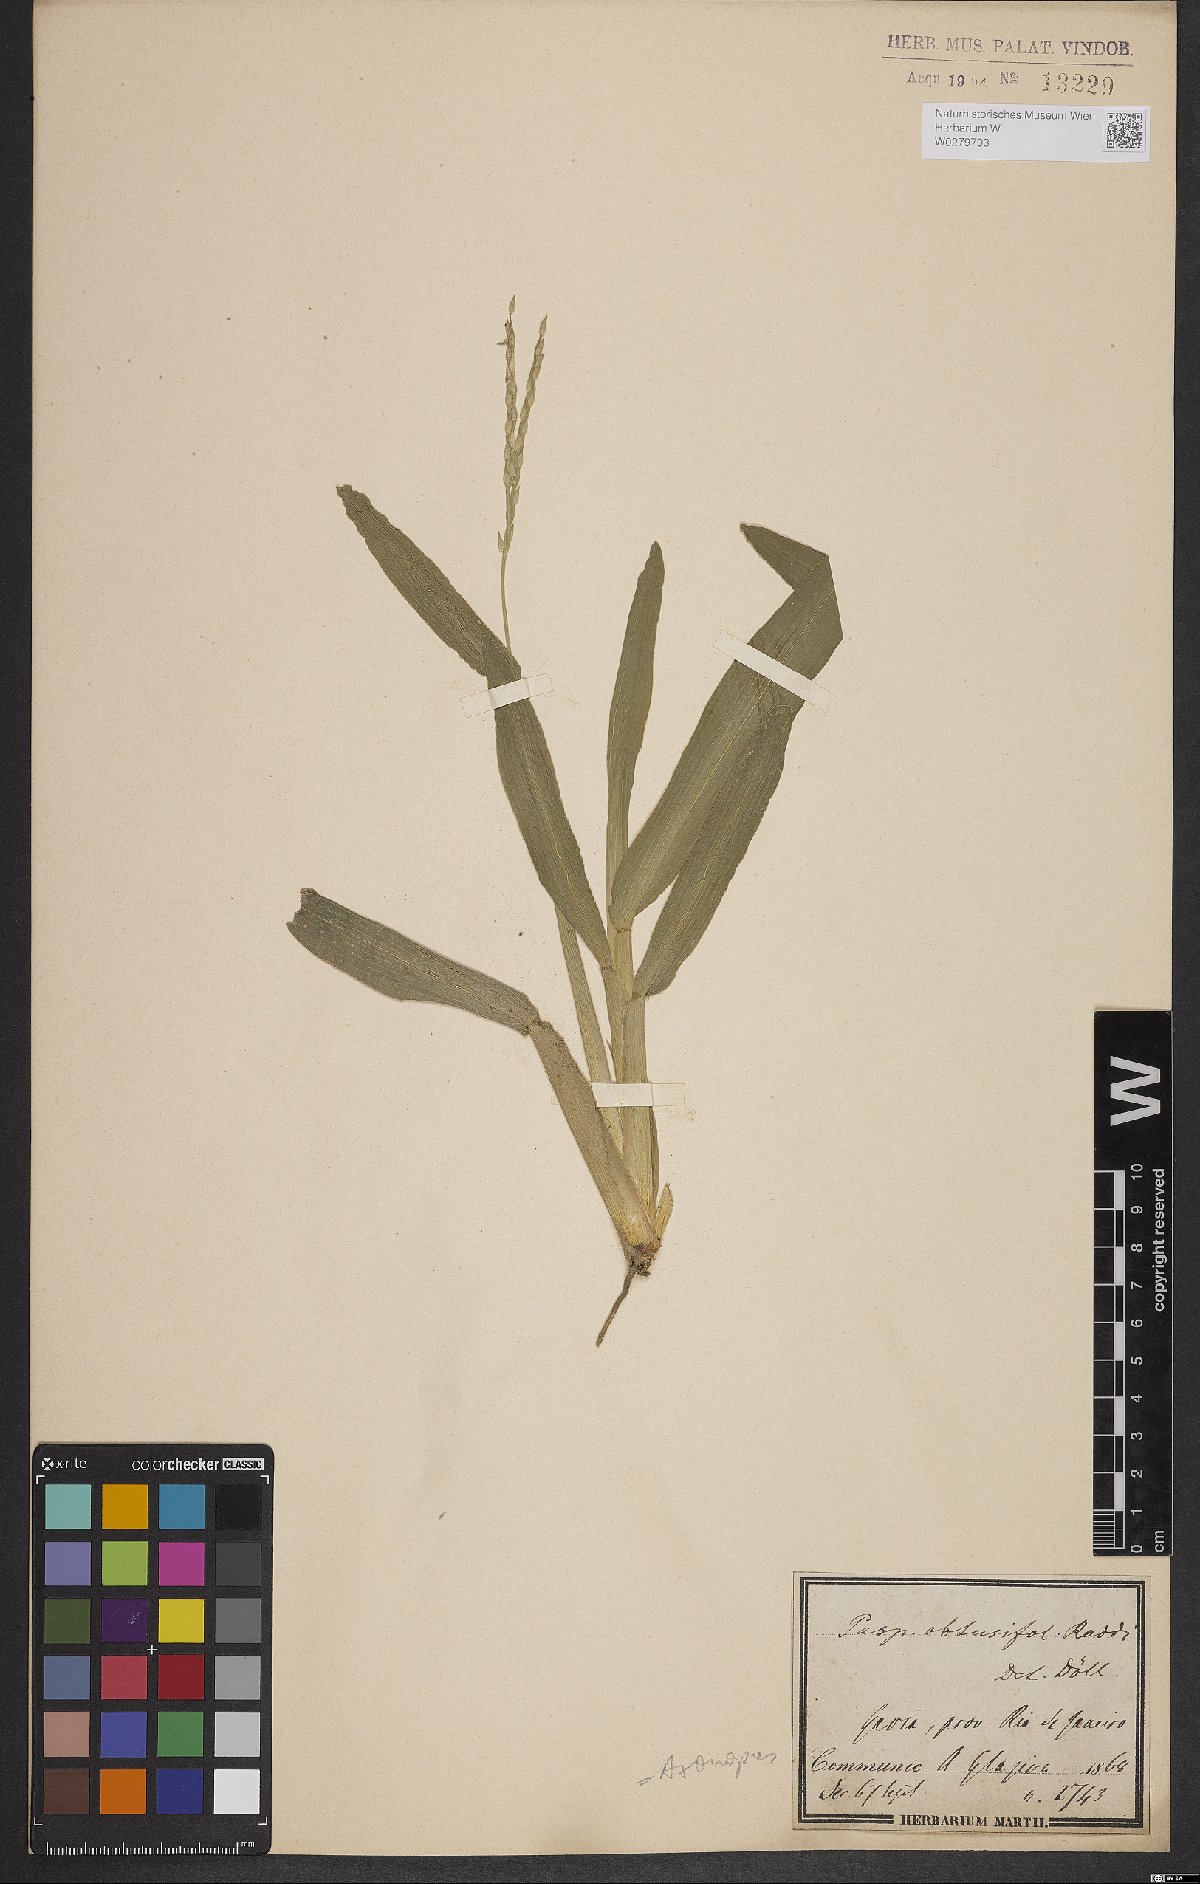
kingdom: Plantae
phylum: Tracheophyta
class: Liliopsida
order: Poales
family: Poaceae
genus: Axonopus
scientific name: Axonopus furcatus
